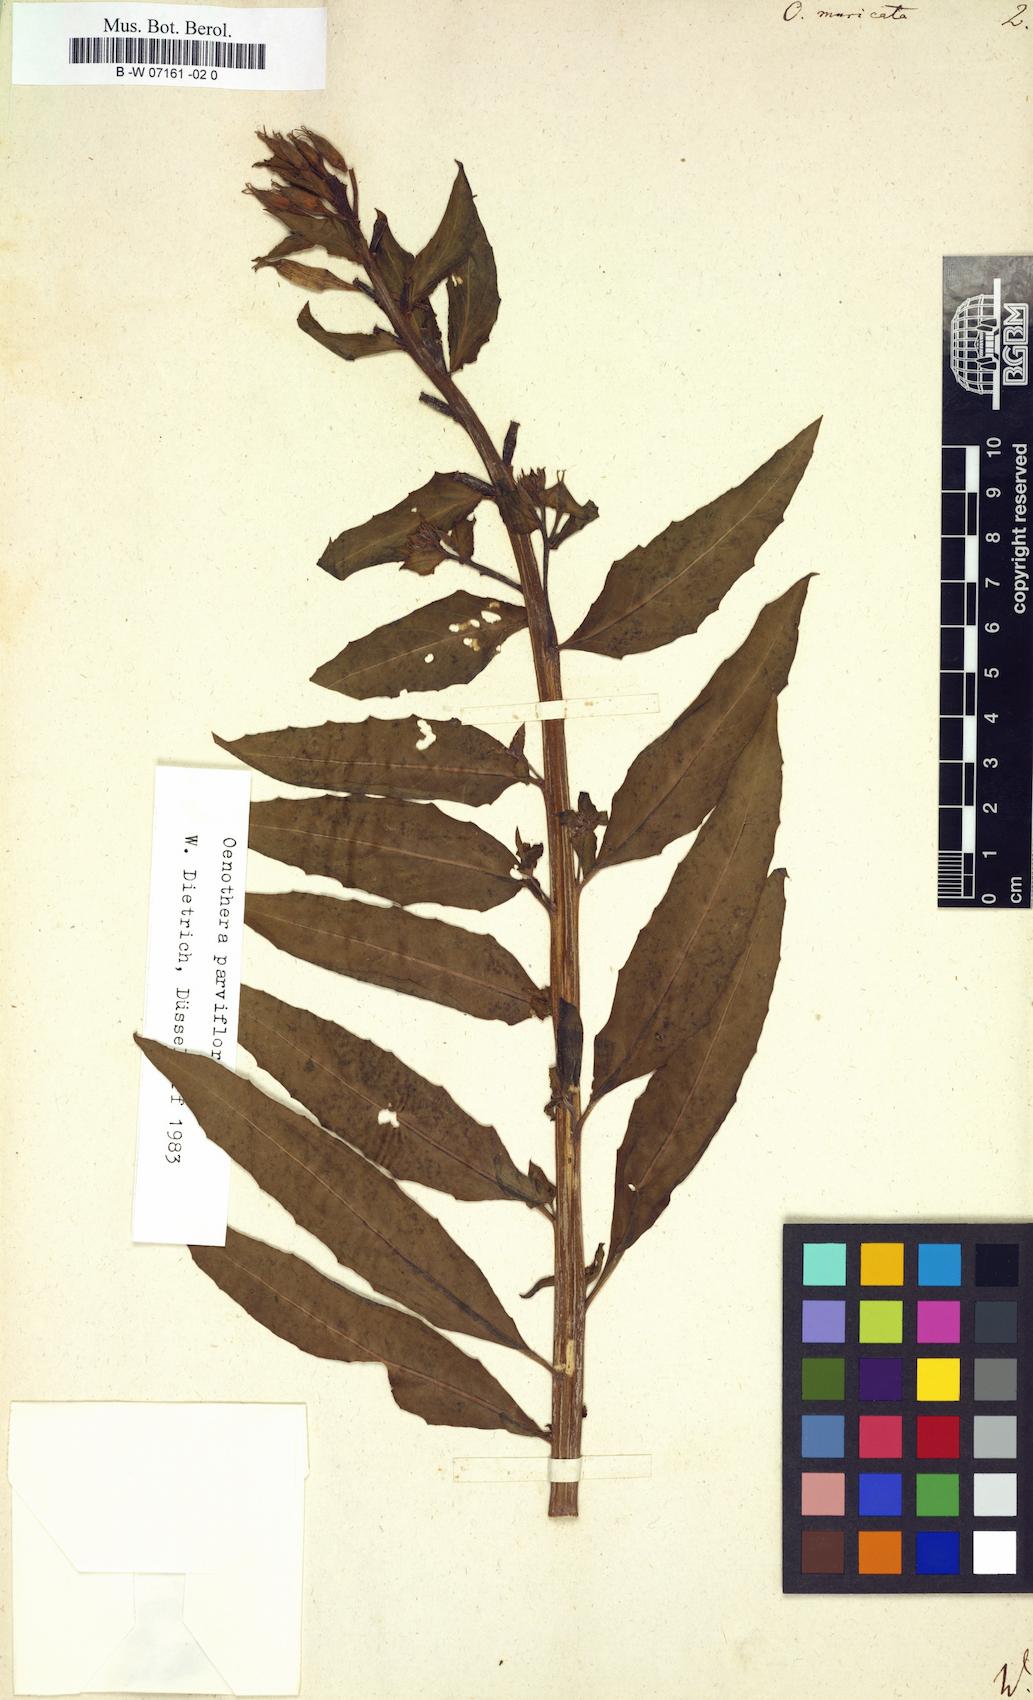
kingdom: Plantae
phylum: Tracheophyta
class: Magnoliopsida
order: Myrtales
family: Onagraceae
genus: Oenothera
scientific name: Oenothera biennis
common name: Common evening-primrose
